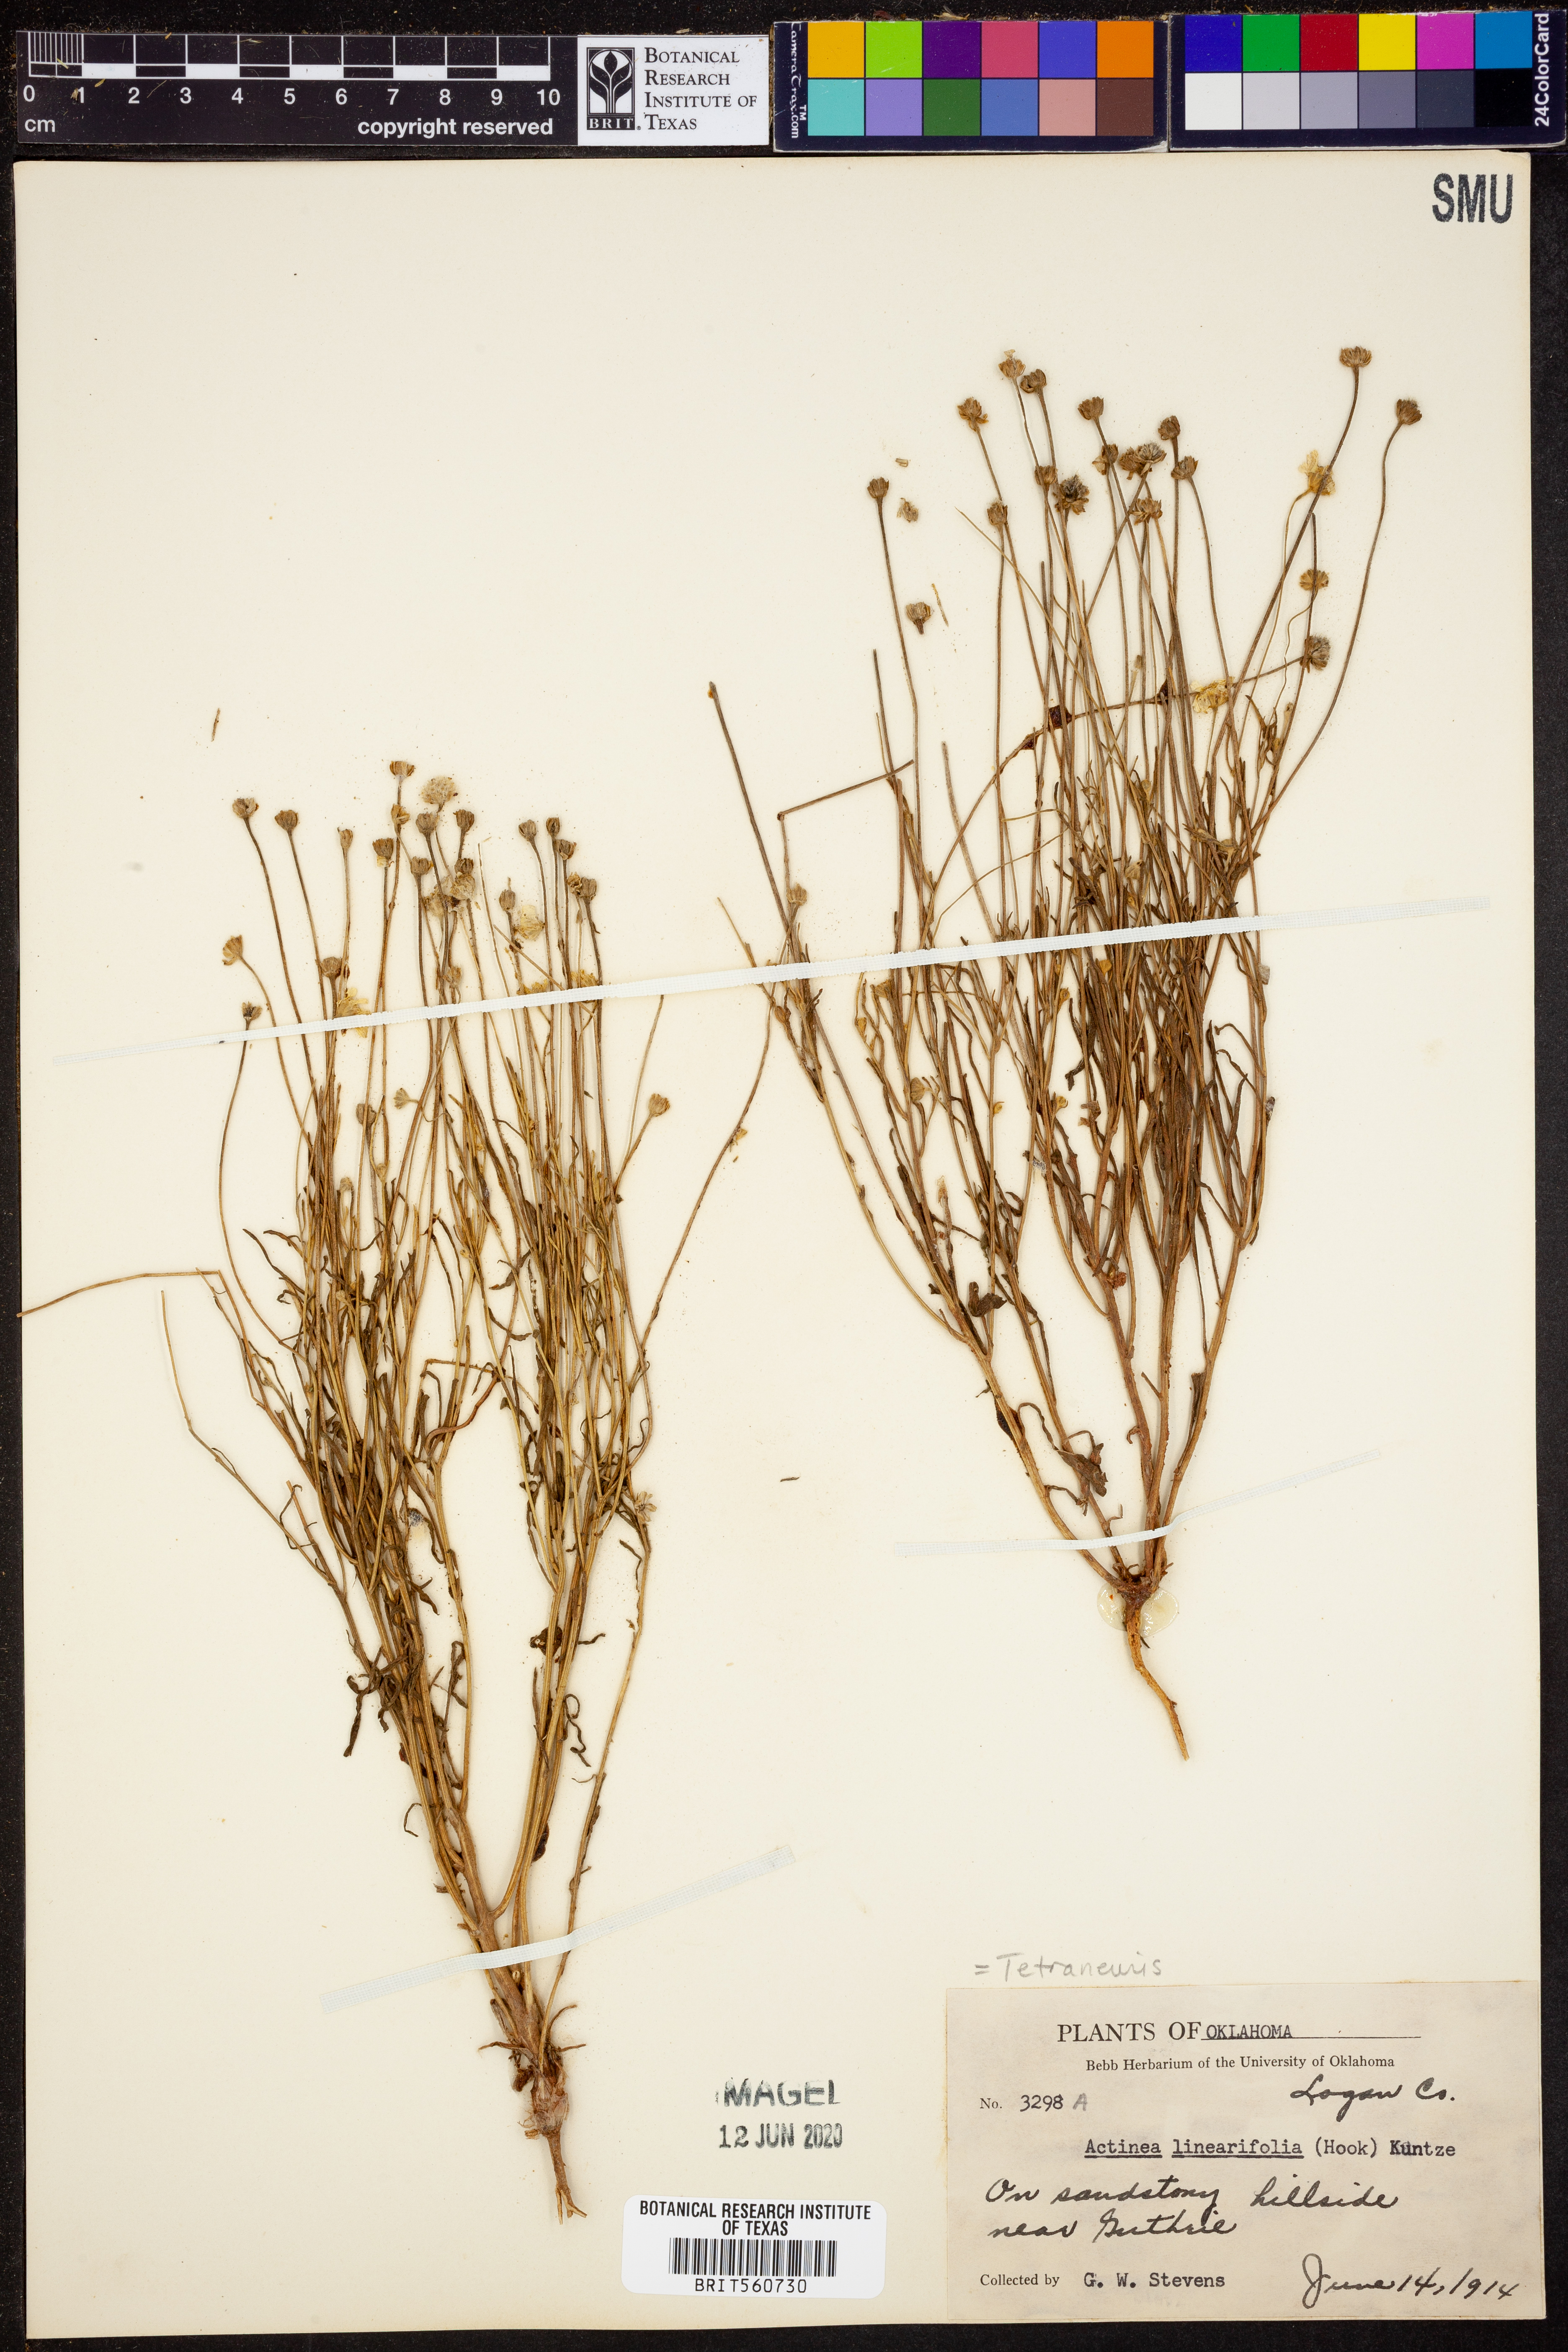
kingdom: Plantae
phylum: Tracheophyta
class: Magnoliopsida
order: Asterales
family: Asteraceae
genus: Tetraneuris
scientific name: Tetraneuris linearifolia
